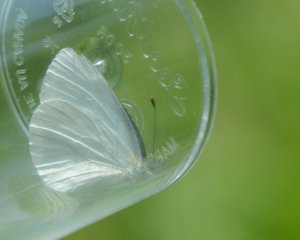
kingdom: Animalia
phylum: Arthropoda
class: Insecta
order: Lepidoptera
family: Pieridae
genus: Pieris
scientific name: Pieris oleracea
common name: Mustard White
